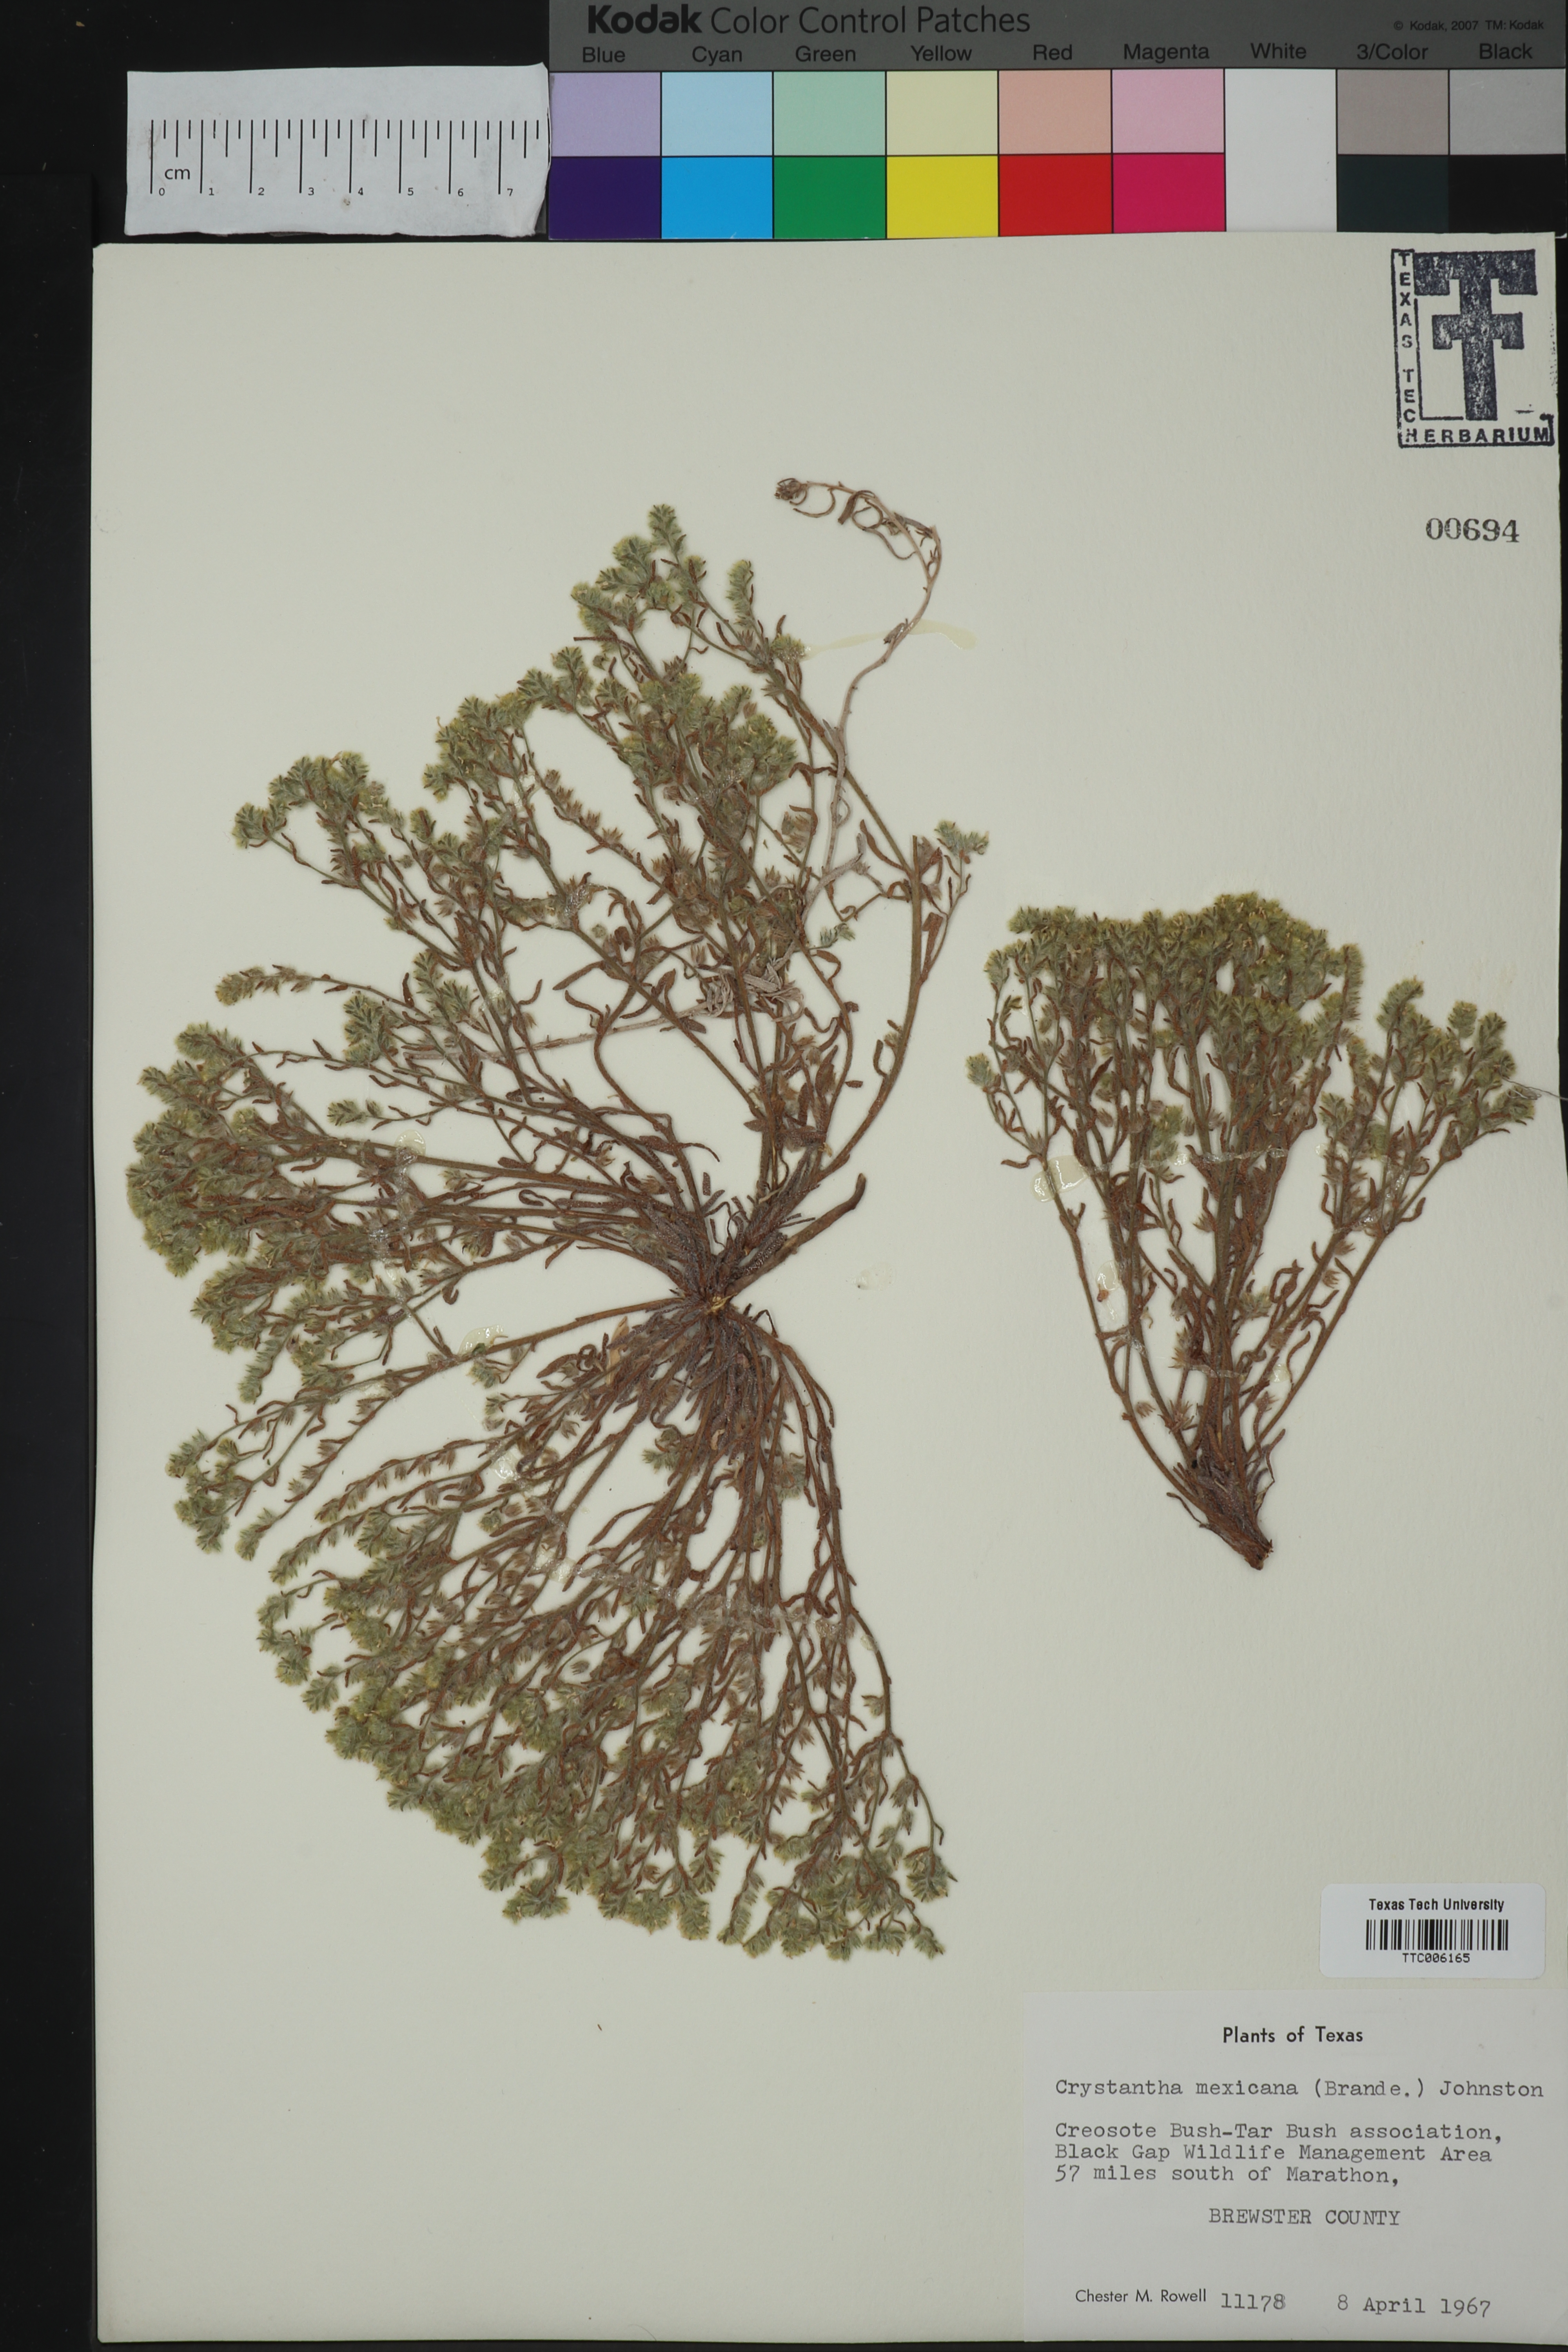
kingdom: Plantae
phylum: Tracheophyta
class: Magnoliopsida
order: Boraginales
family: Boraginaceae
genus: Johnstonella
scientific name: Johnstonella mexicana
